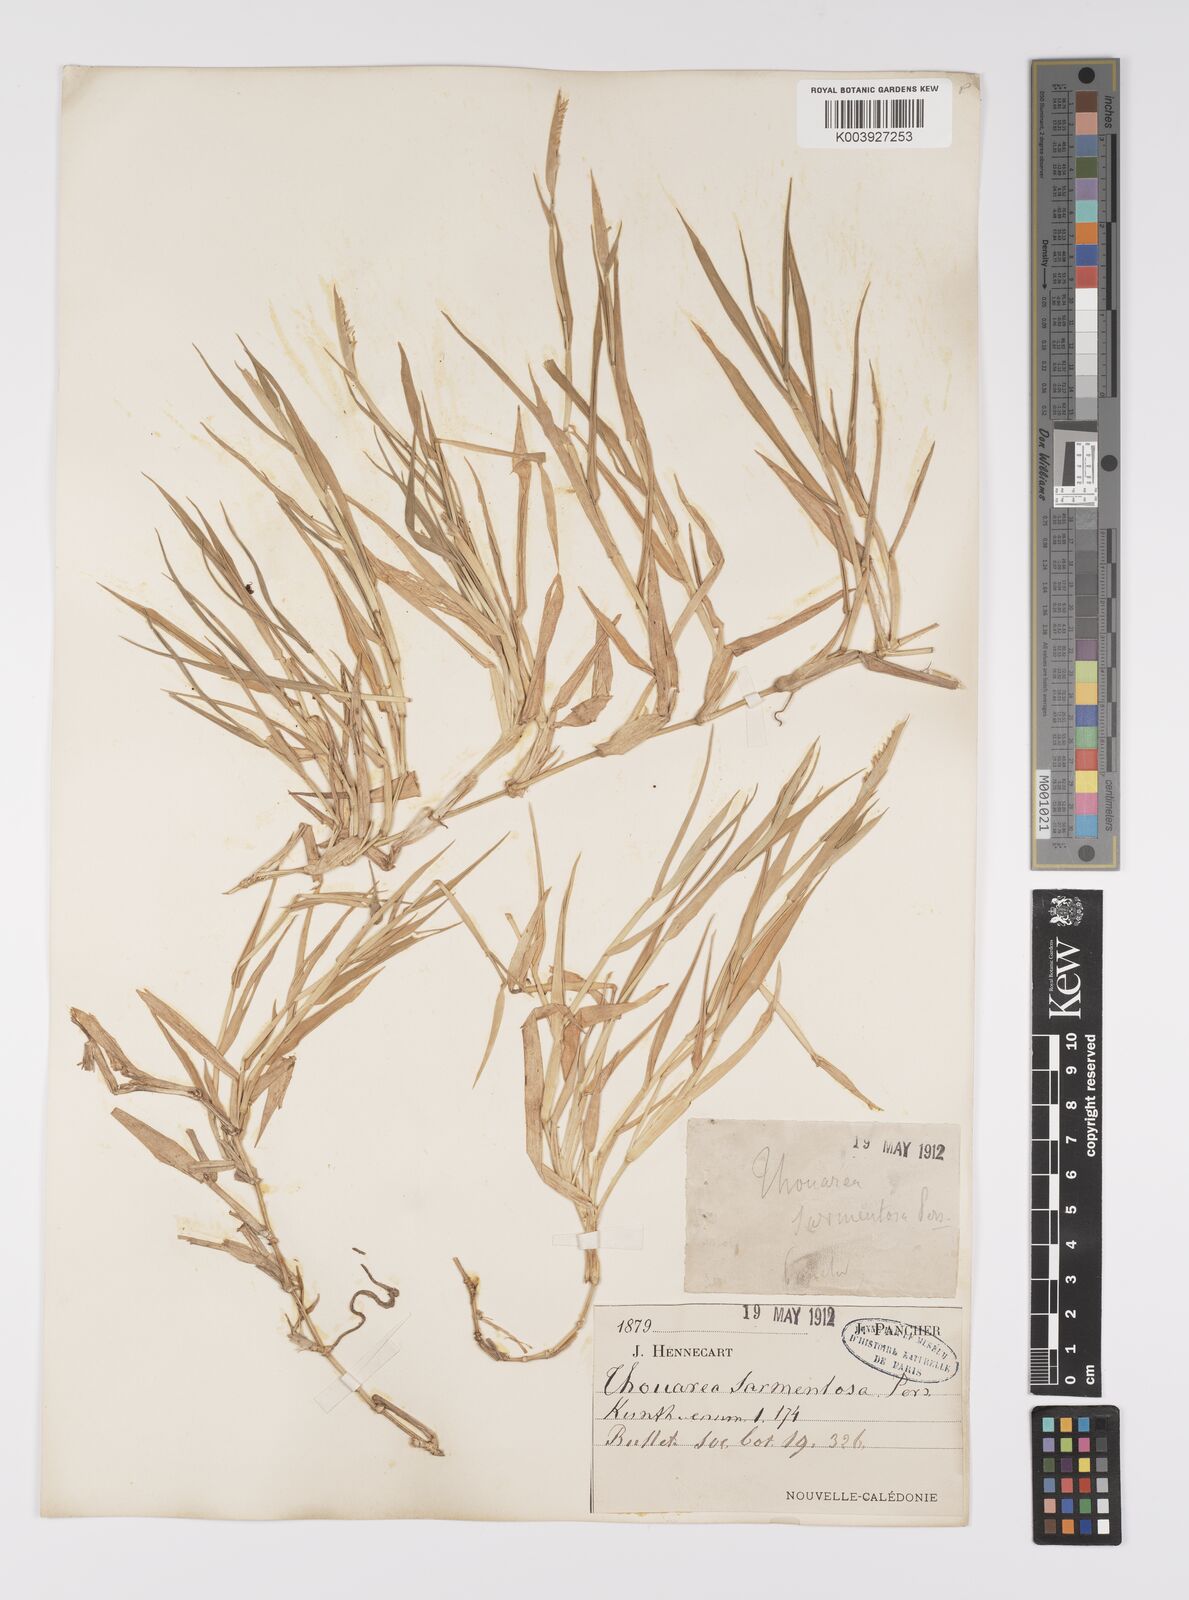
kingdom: Plantae
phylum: Tracheophyta
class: Liliopsida
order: Poales
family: Poaceae
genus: Thuarea
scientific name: Thuarea involuta
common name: Tropical beach grass
